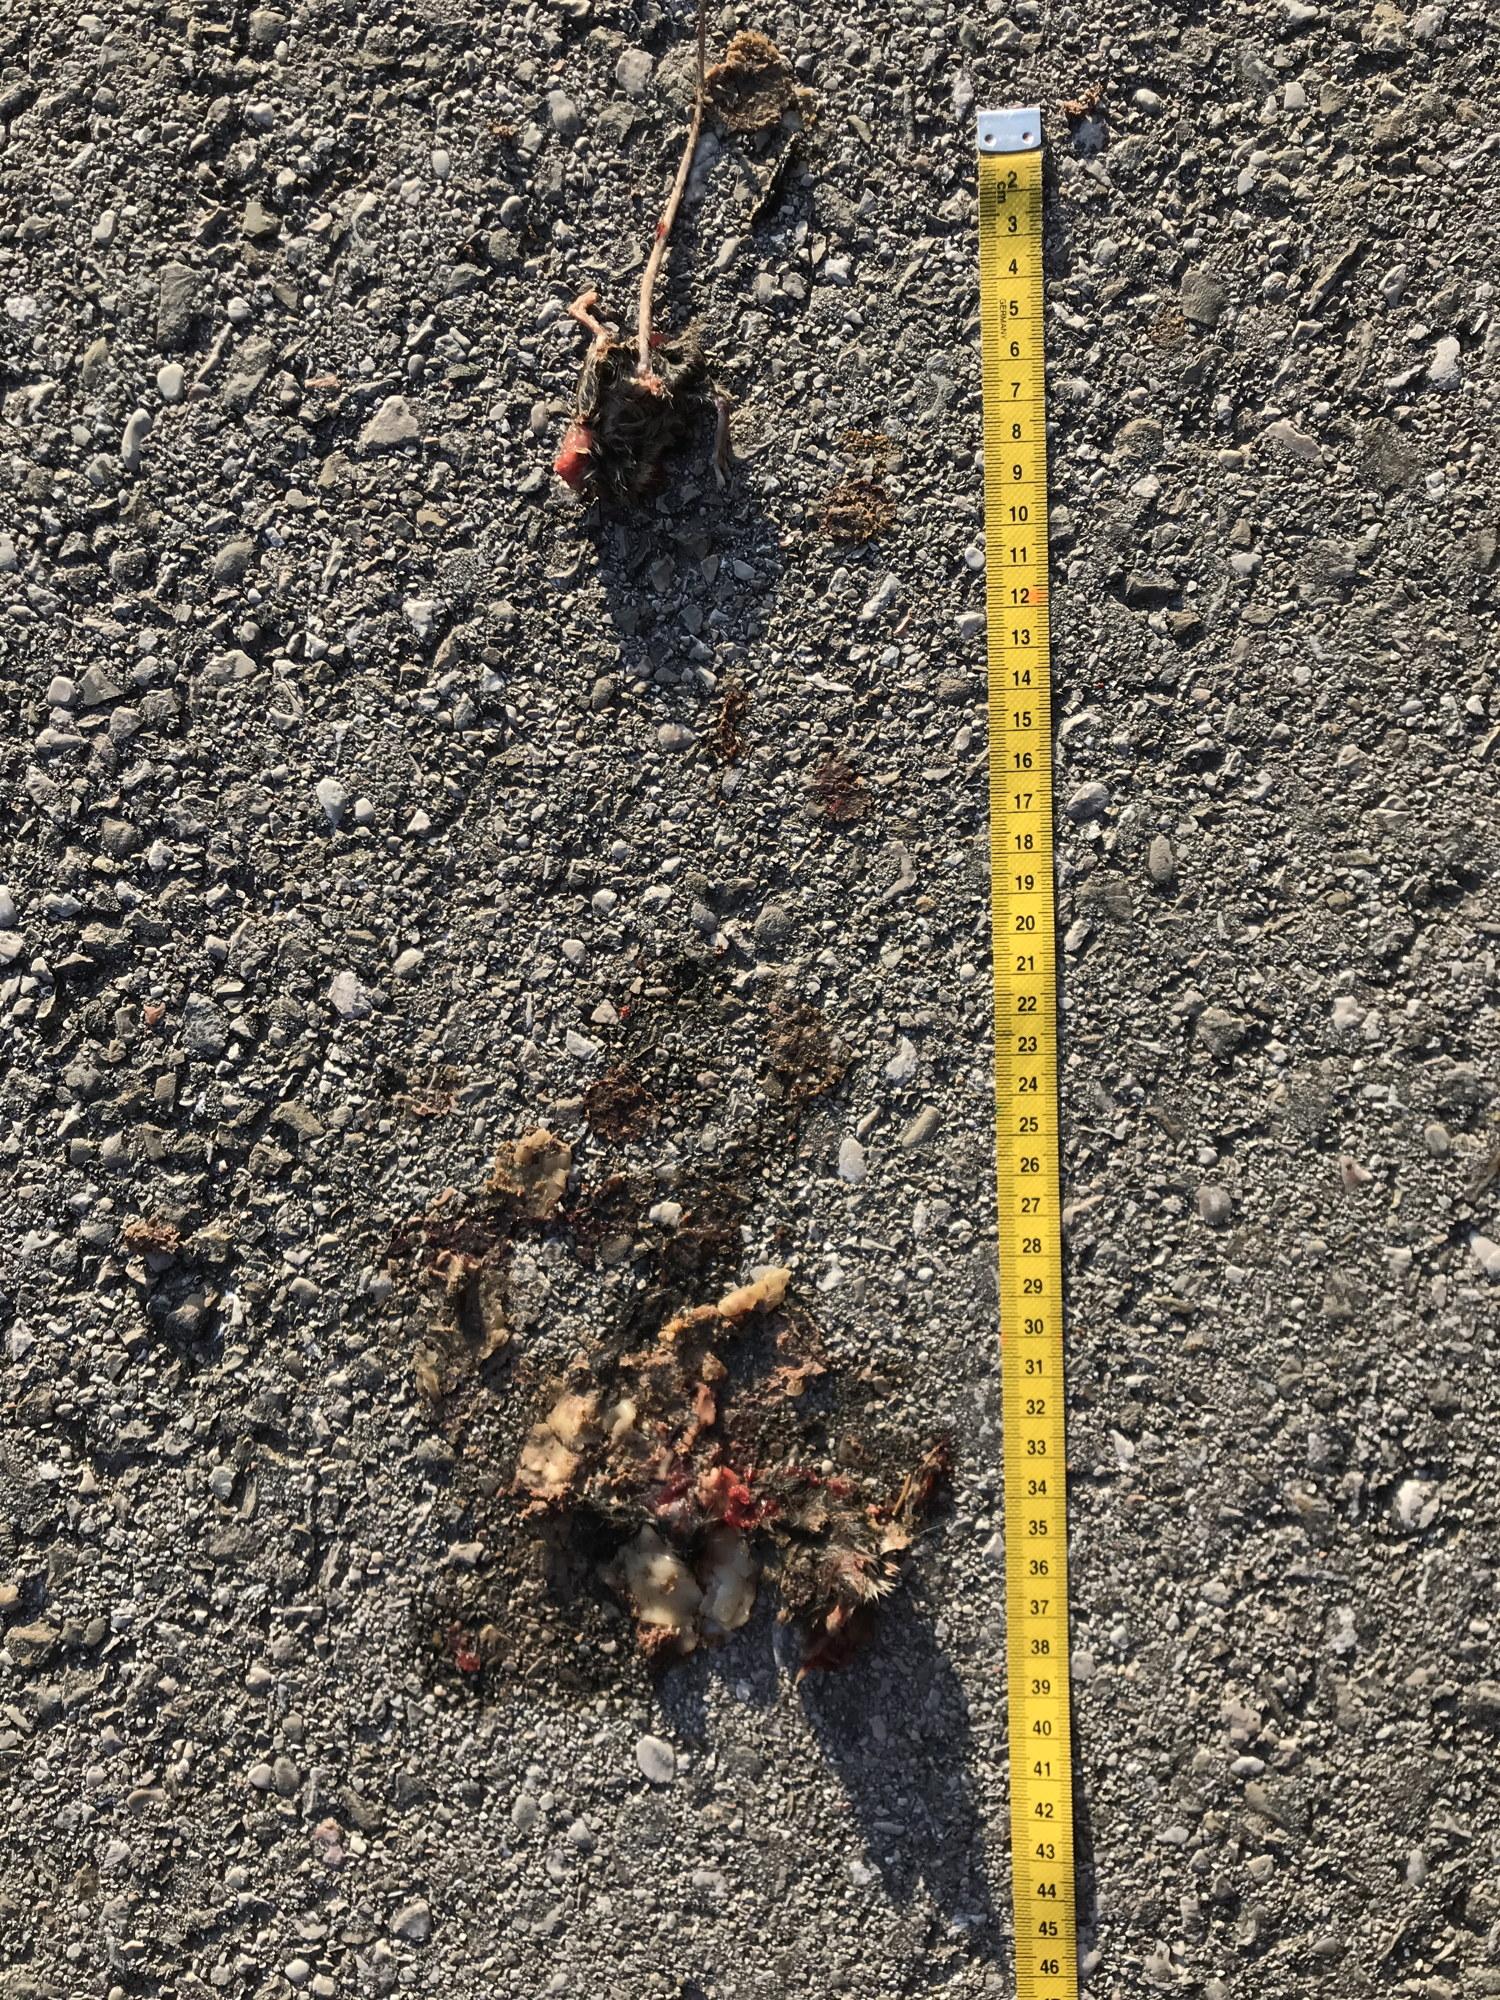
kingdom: Animalia
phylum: Chordata
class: Mammalia
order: Rodentia
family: Muridae
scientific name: Muridae
